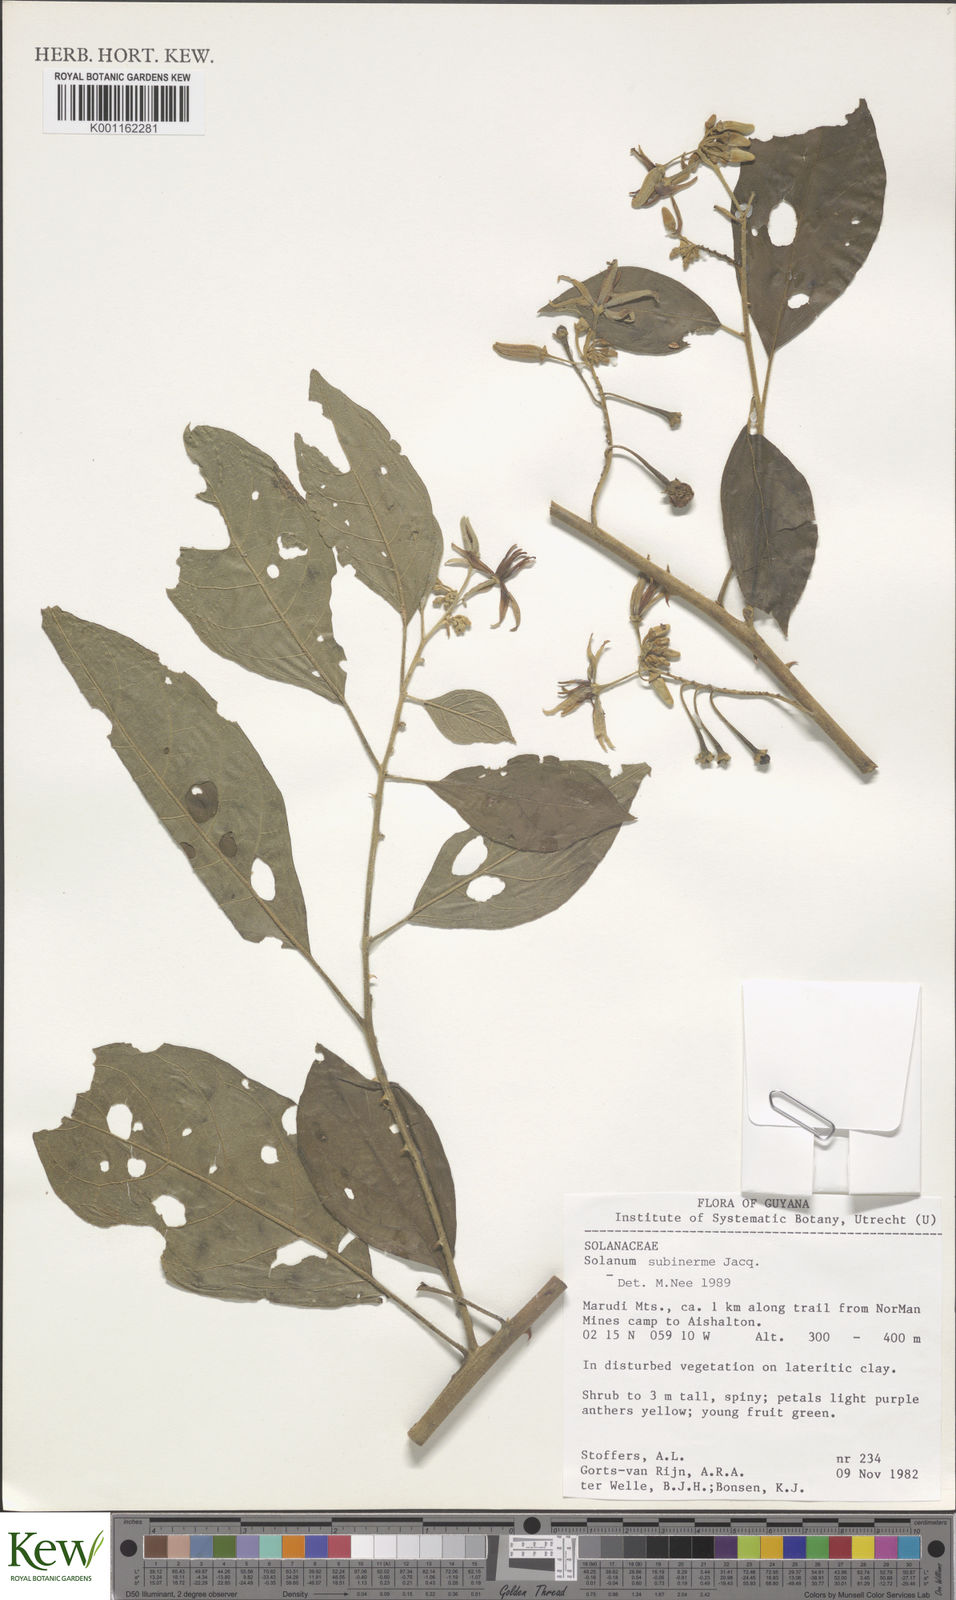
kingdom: Plantae
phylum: Tracheophyta
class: Magnoliopsida
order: Solanales
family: Solanaceae
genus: Solanum
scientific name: Solanum subinerme
